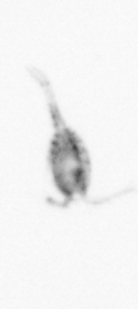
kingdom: Animalia
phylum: Arthropoda
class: Copepoda
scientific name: Copepoda
